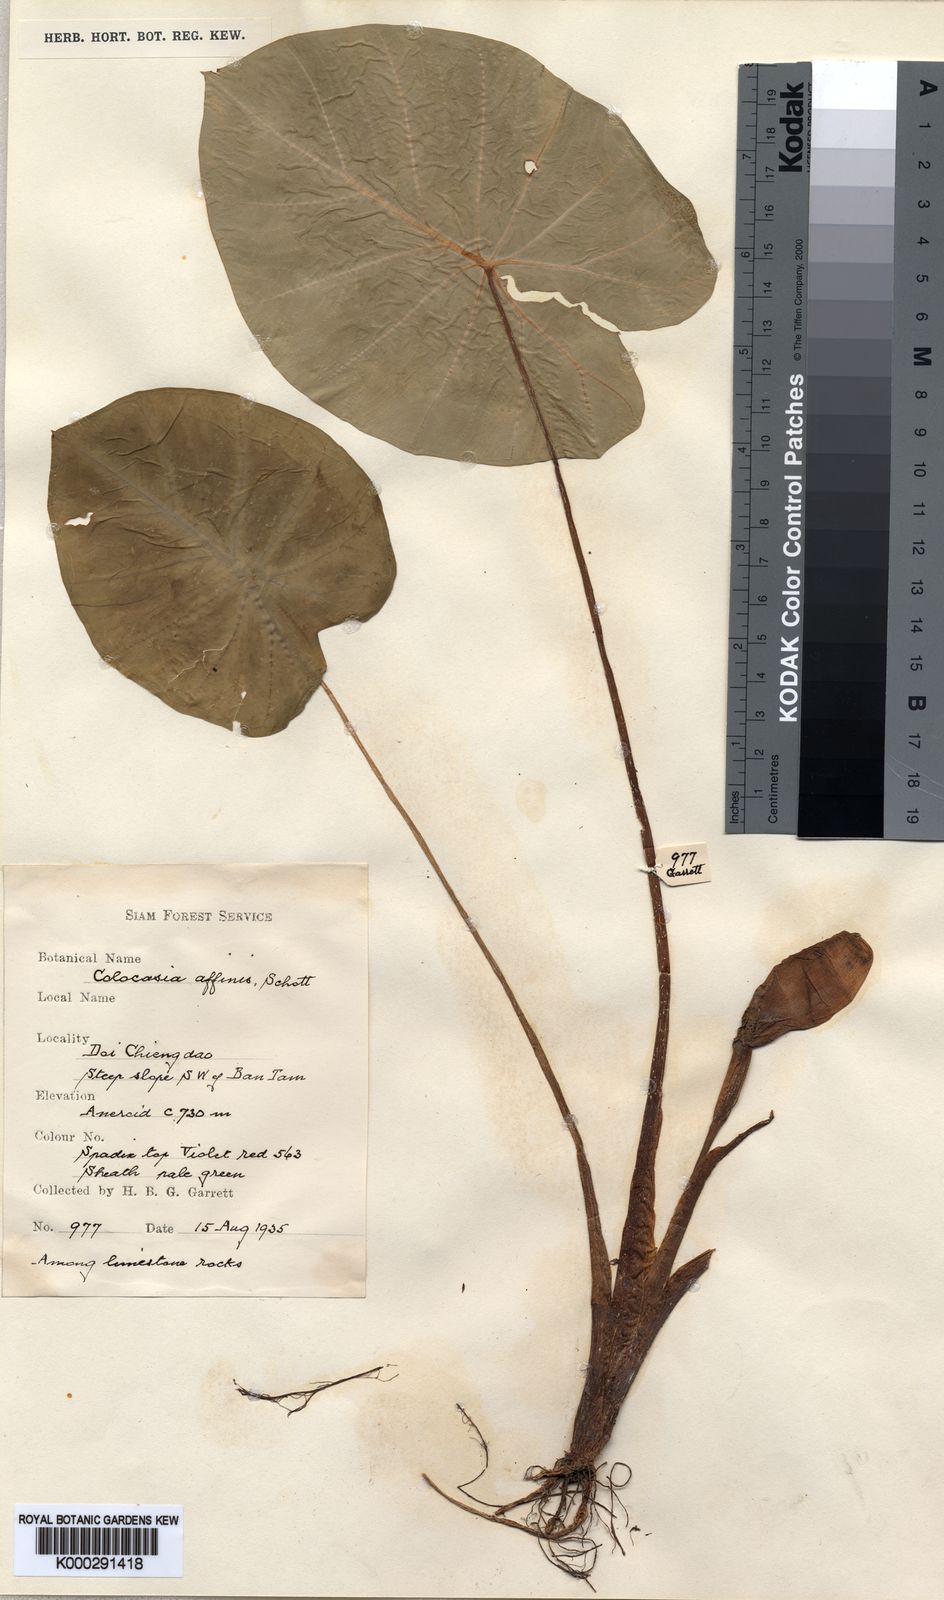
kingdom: Plantae
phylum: Tracheophyta
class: Liliopsida
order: Alismatales
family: Araceae
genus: Colocasia
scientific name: Colocasia fallax
